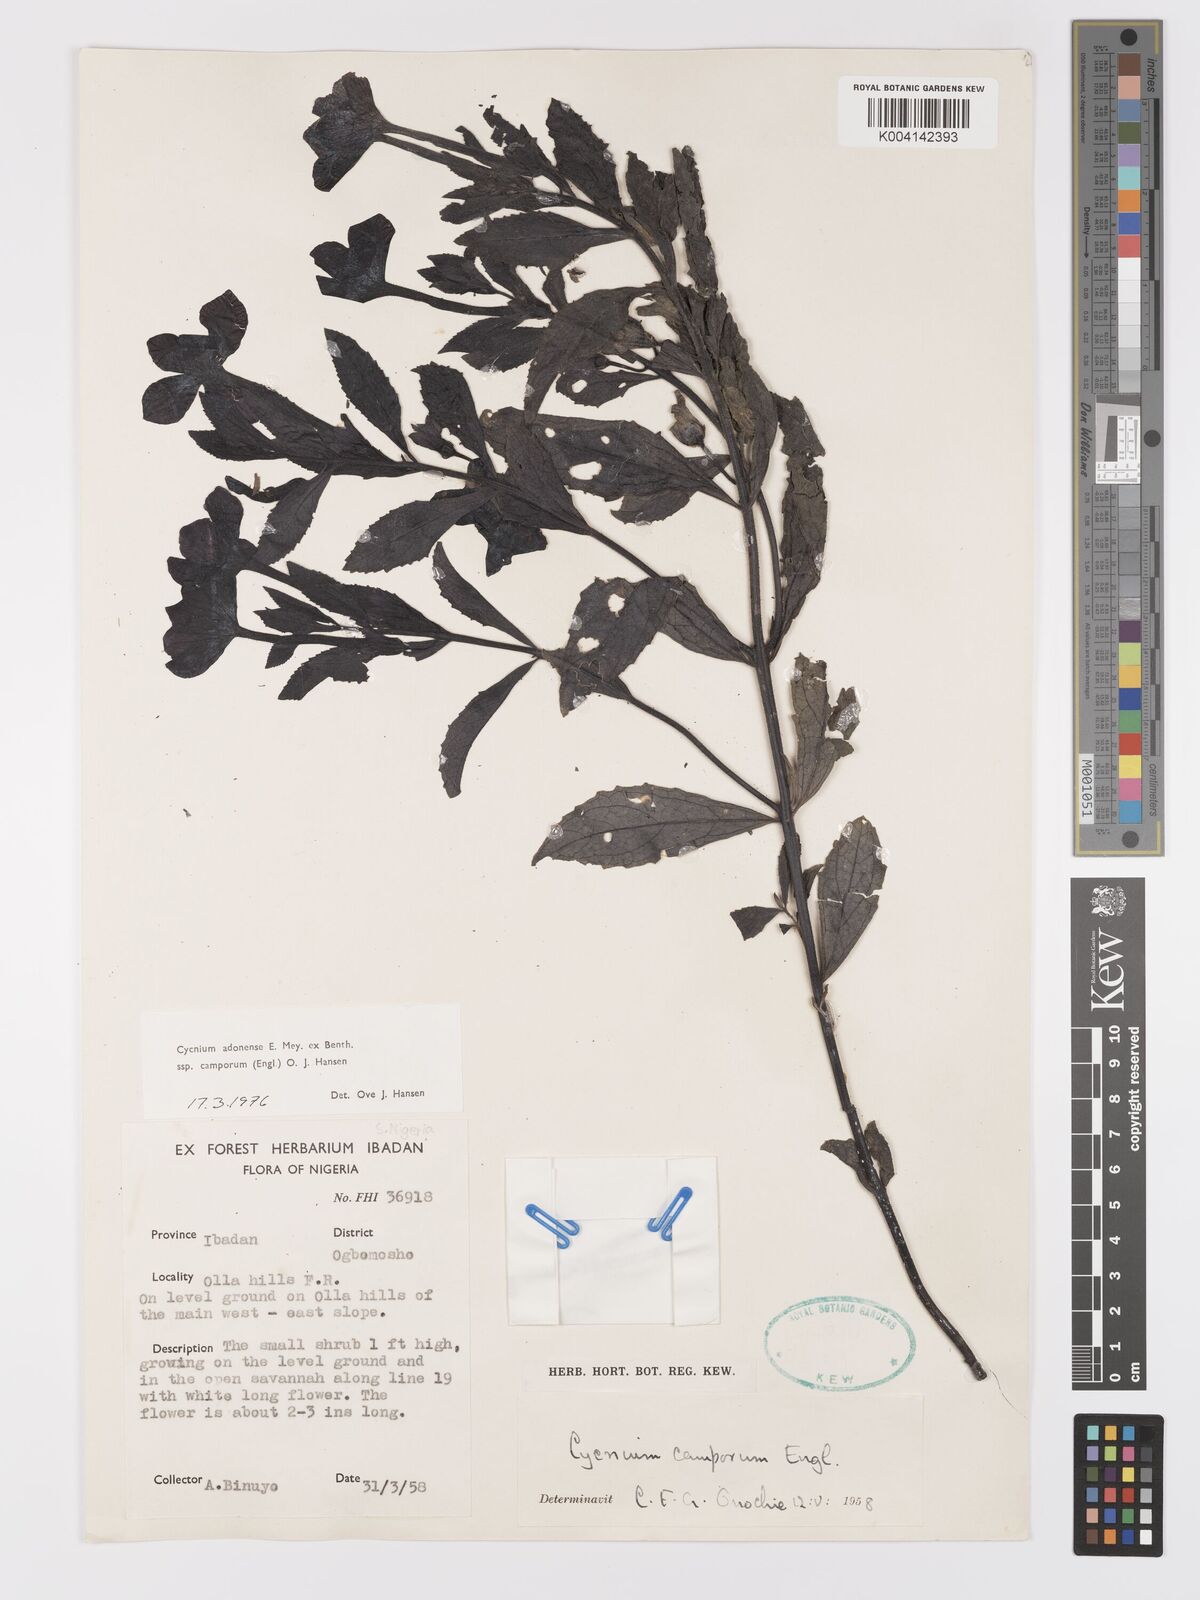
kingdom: Plantae
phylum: Tracheophyta
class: Magnoliopsida
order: Lamiales
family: Orobanchaceae
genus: Cycnium
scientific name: Cycnium adoense
